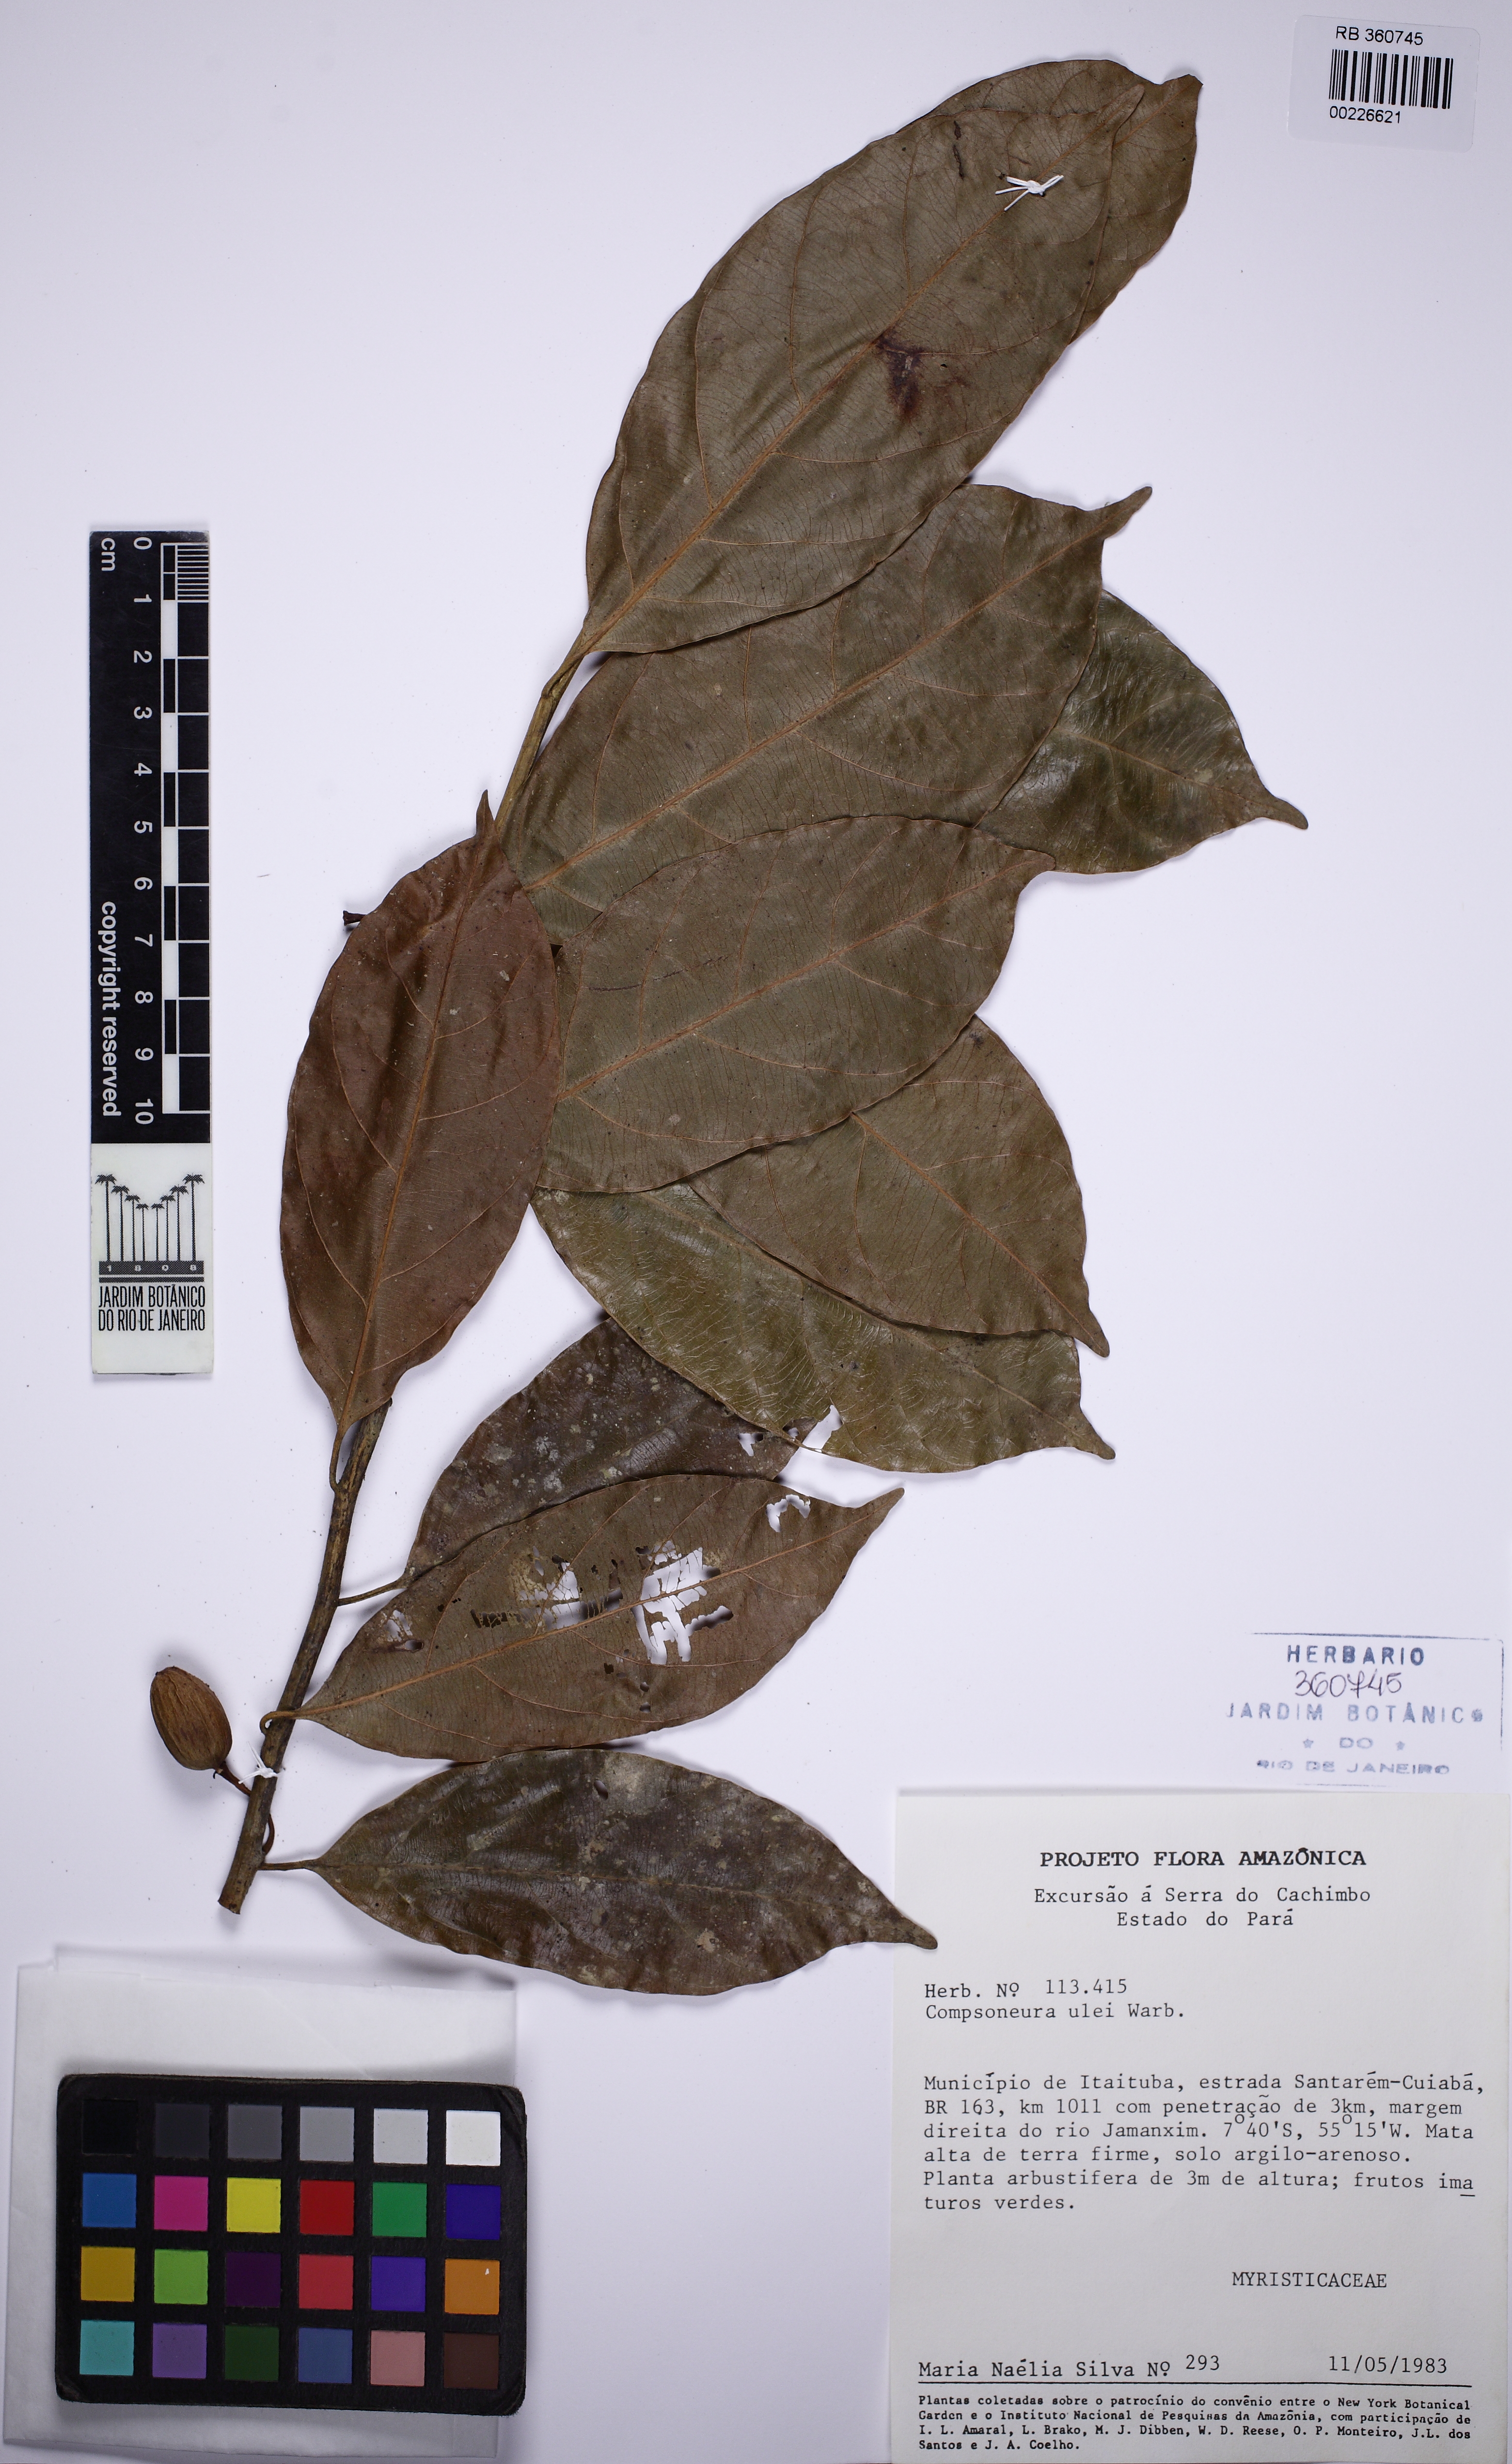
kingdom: Plantae
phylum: Tracheophyta
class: Magnoliopsida
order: Magnoliales
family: Myristicaceae
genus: Compsoneura
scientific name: Compsoneura ulei
